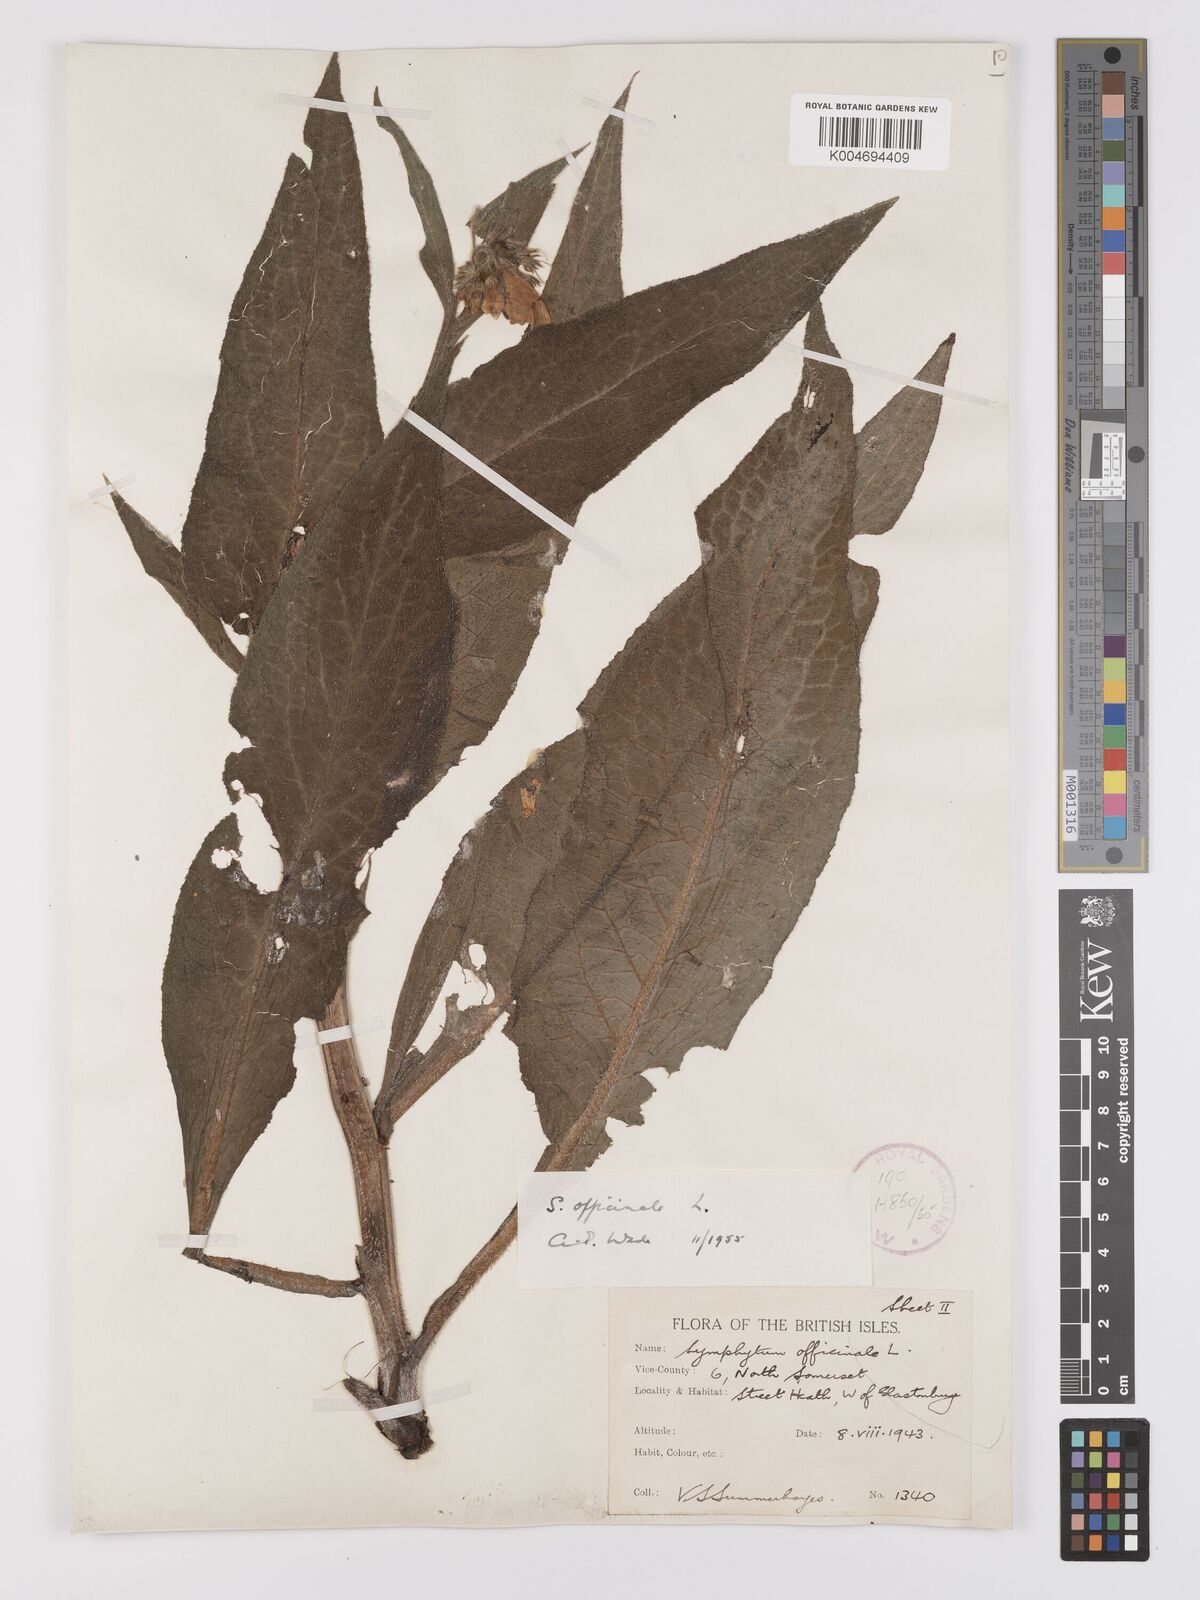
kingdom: Plantae
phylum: Tracheophyta
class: Magnoliopsida
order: Boraginales
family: Boraginaceae
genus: Symphytum
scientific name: Symphytum officinale
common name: Common comfrey
